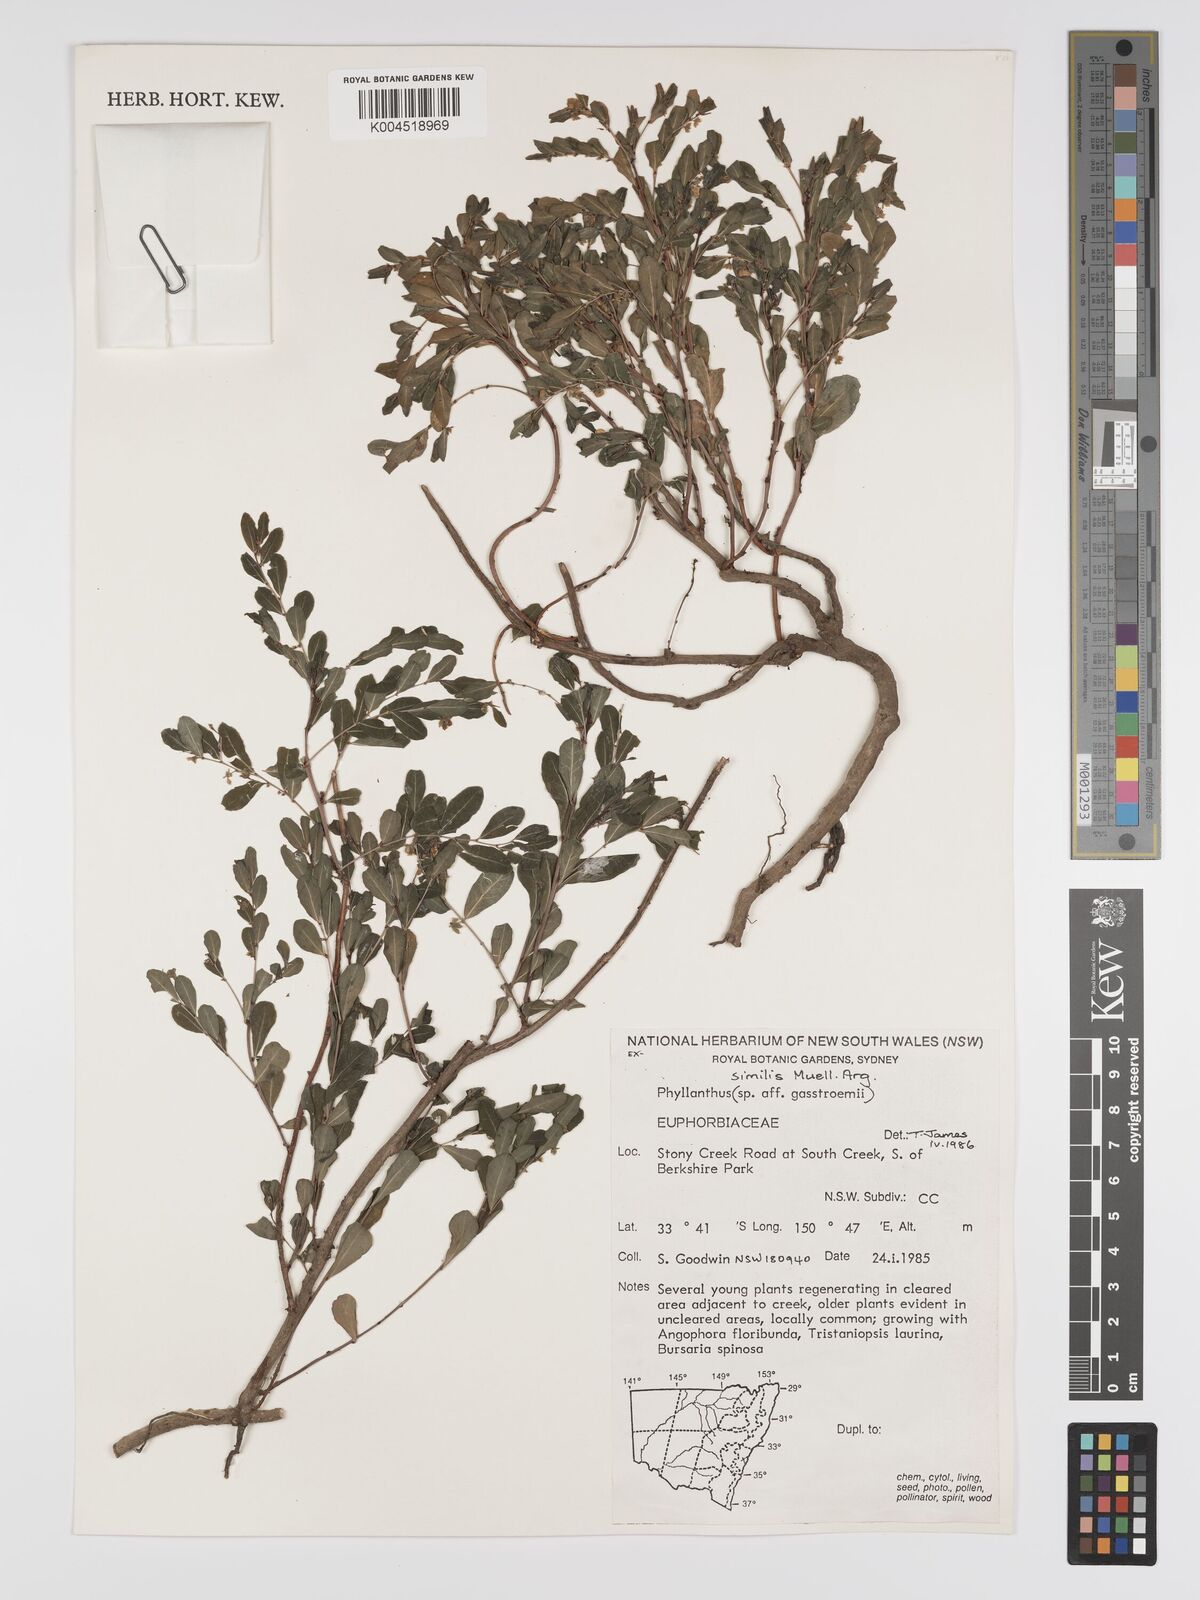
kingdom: Plantae
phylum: Tracheophyta
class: Magnoliopsida
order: Malpighiales
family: Phyllanthaceae
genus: Phyllanthus
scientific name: Phyllanthus similis
